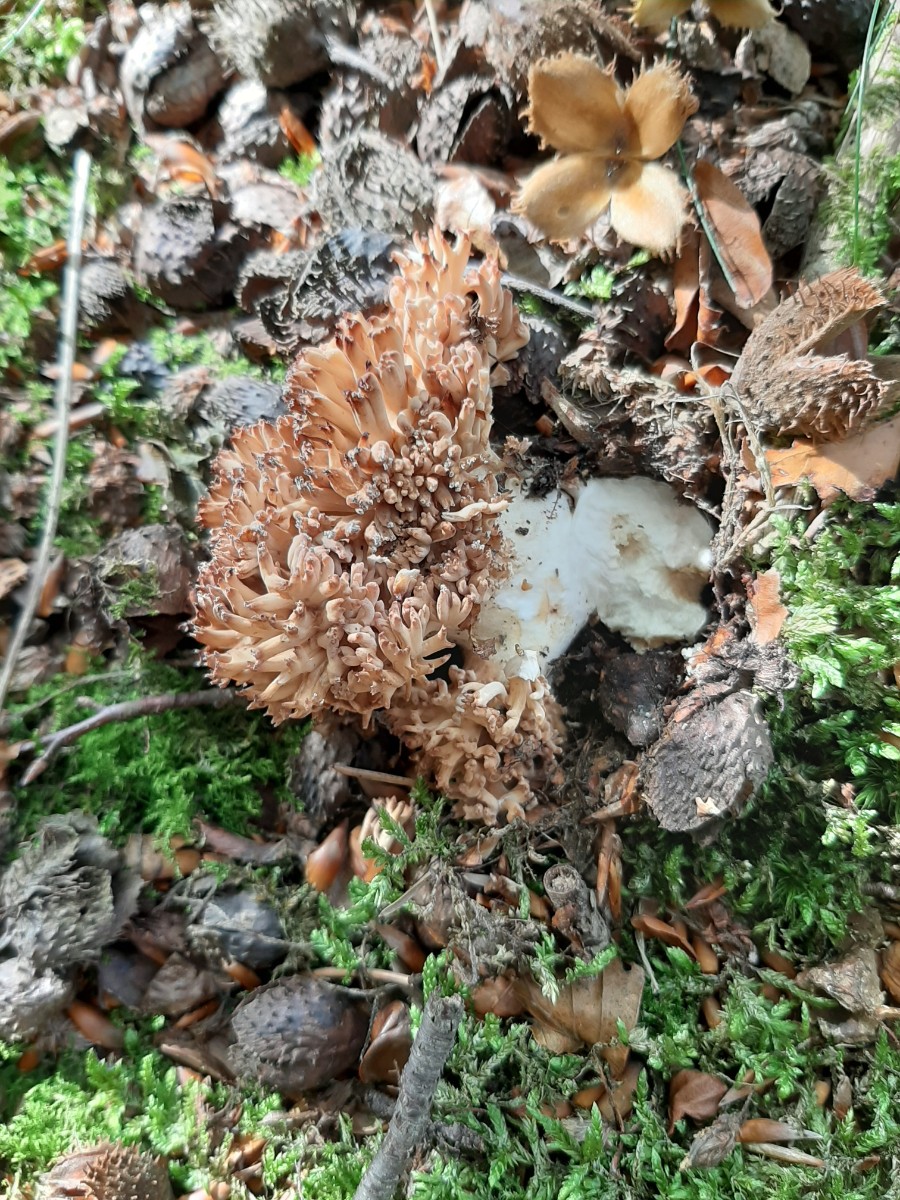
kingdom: Fungi
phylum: Basidiomycota
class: Agaricomycetes
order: Gomphales
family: Gomphaceae
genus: Ramaria
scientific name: Ramaria botrytis
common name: drue-koralsvamp
